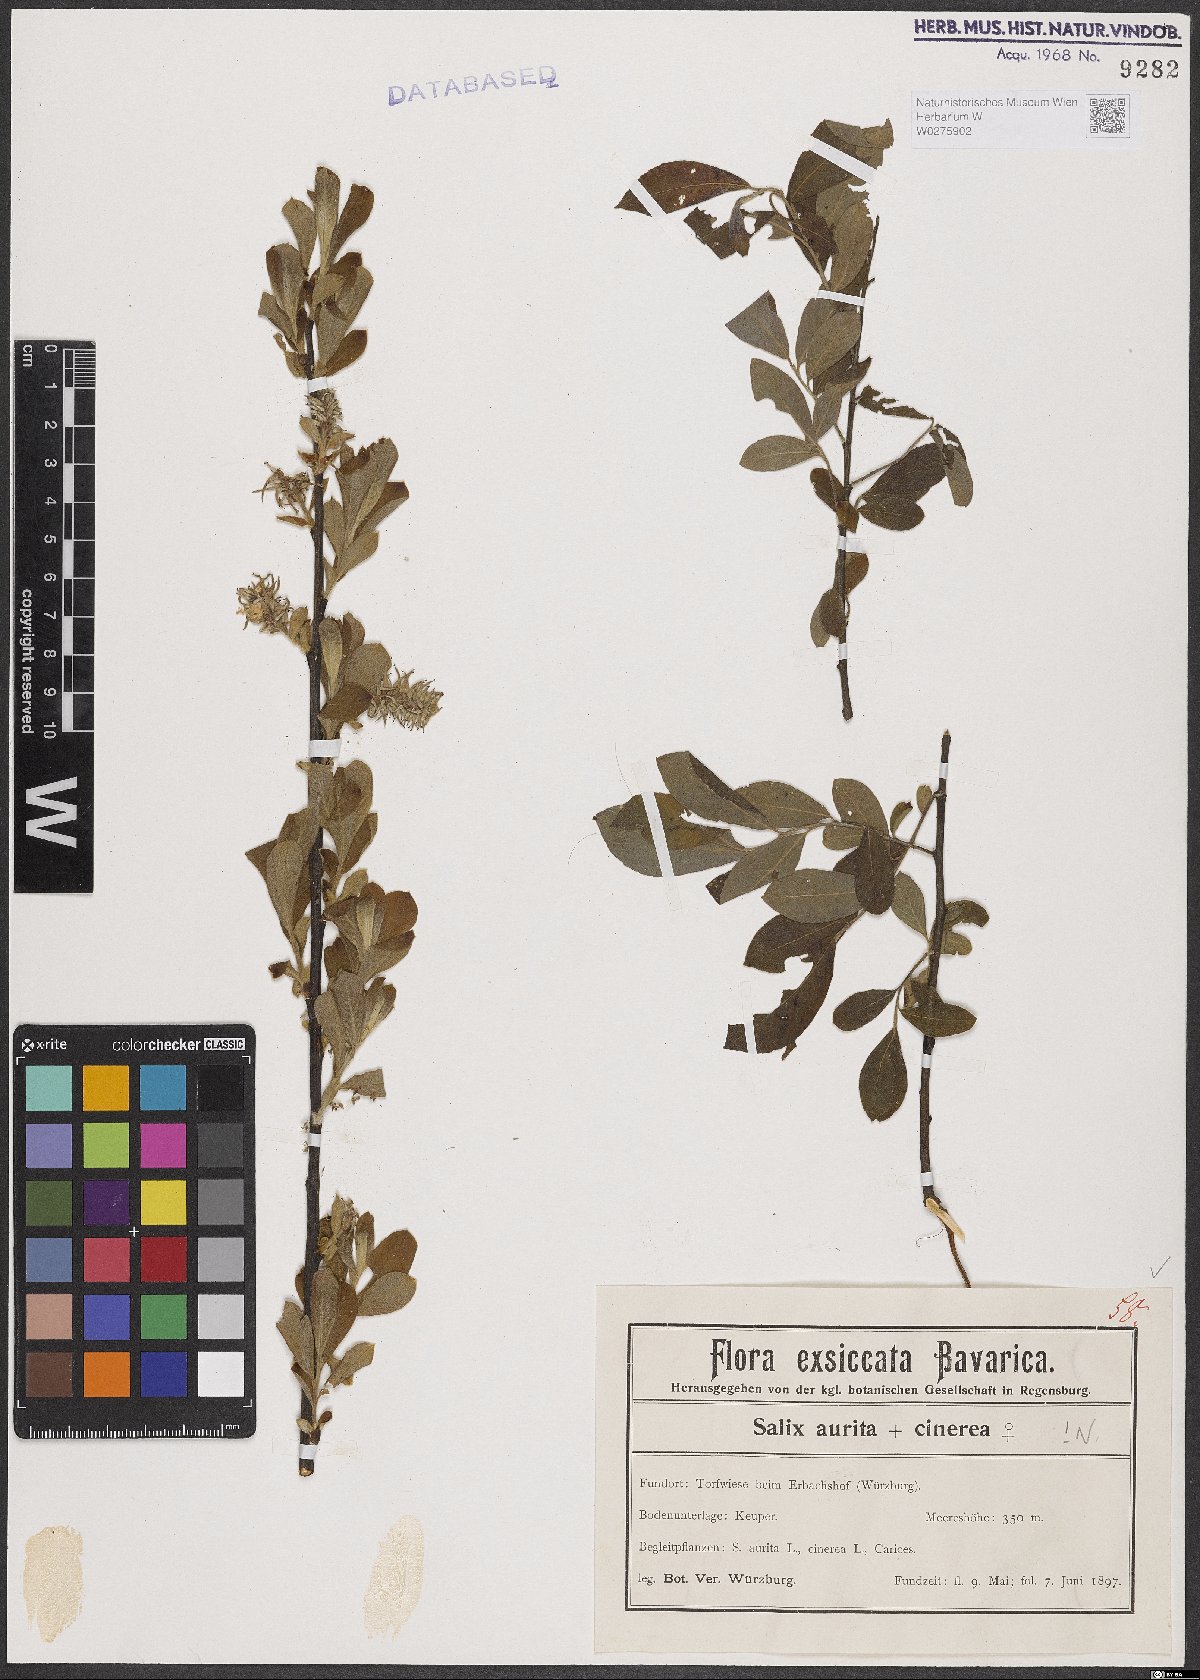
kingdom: Plantae
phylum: Tracheophyta
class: Magnoliopsida
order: Malpighiales
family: Salicaceae
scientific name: Salicaceae
